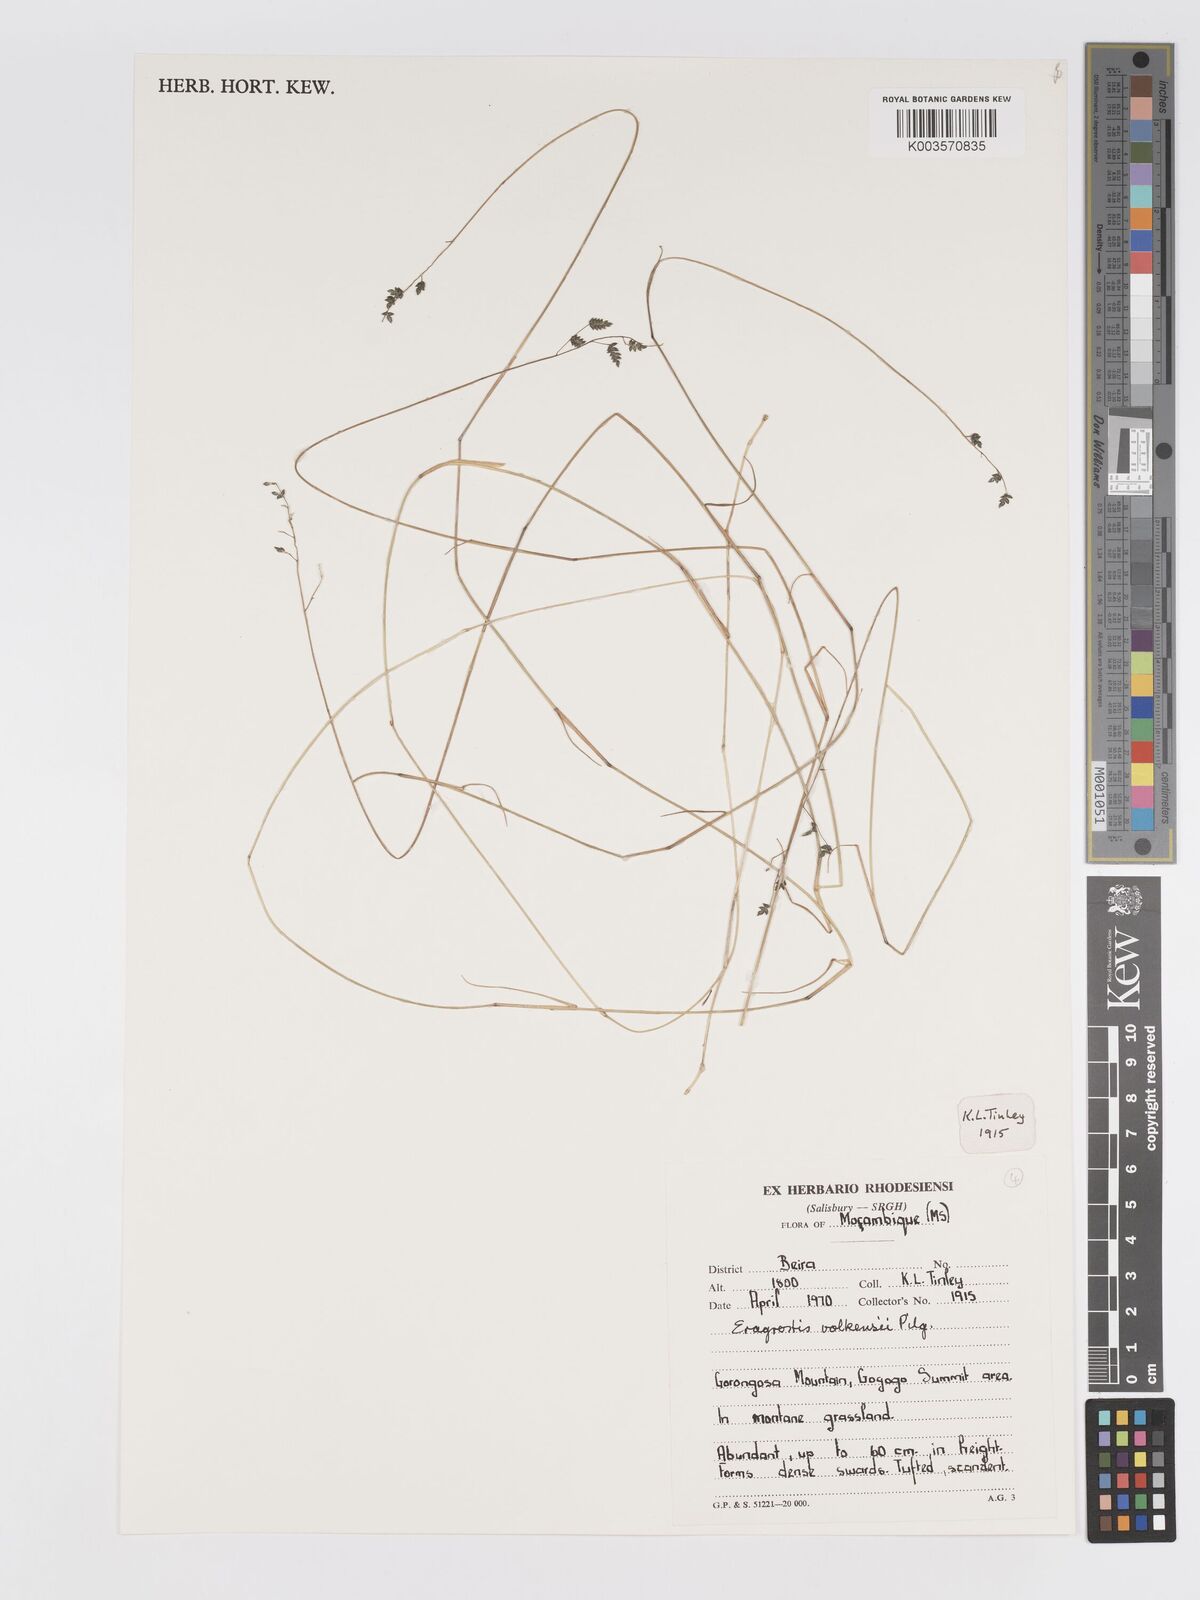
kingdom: Plantae
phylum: Tracheophyta
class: Liliopsida
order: Poales
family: Poaceae
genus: Eragrostis
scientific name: Eragrostis volkensii
